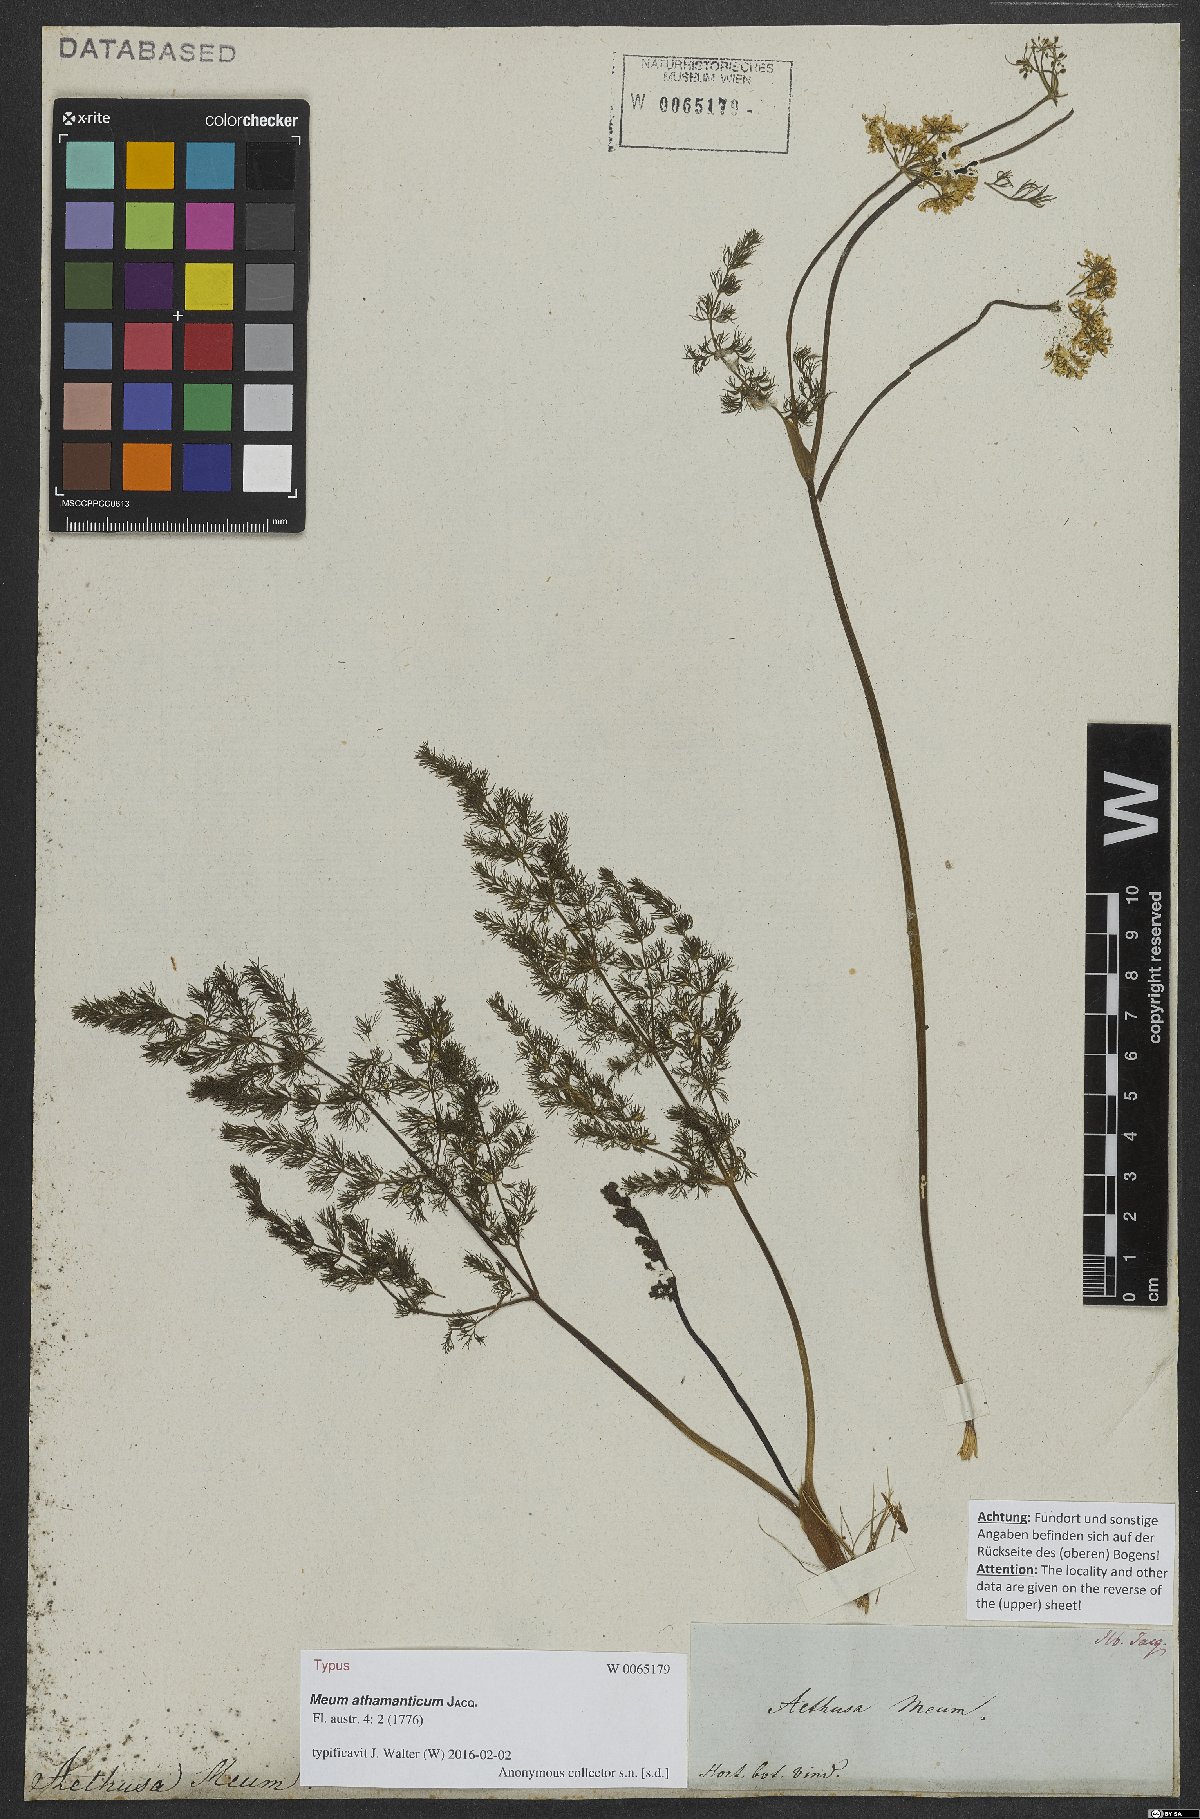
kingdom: Plantae
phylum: Tracheophyta
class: Magnoliopsida
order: Apiales
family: Apiaceae
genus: Meum
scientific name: Meum athamanticum
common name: Spignel
